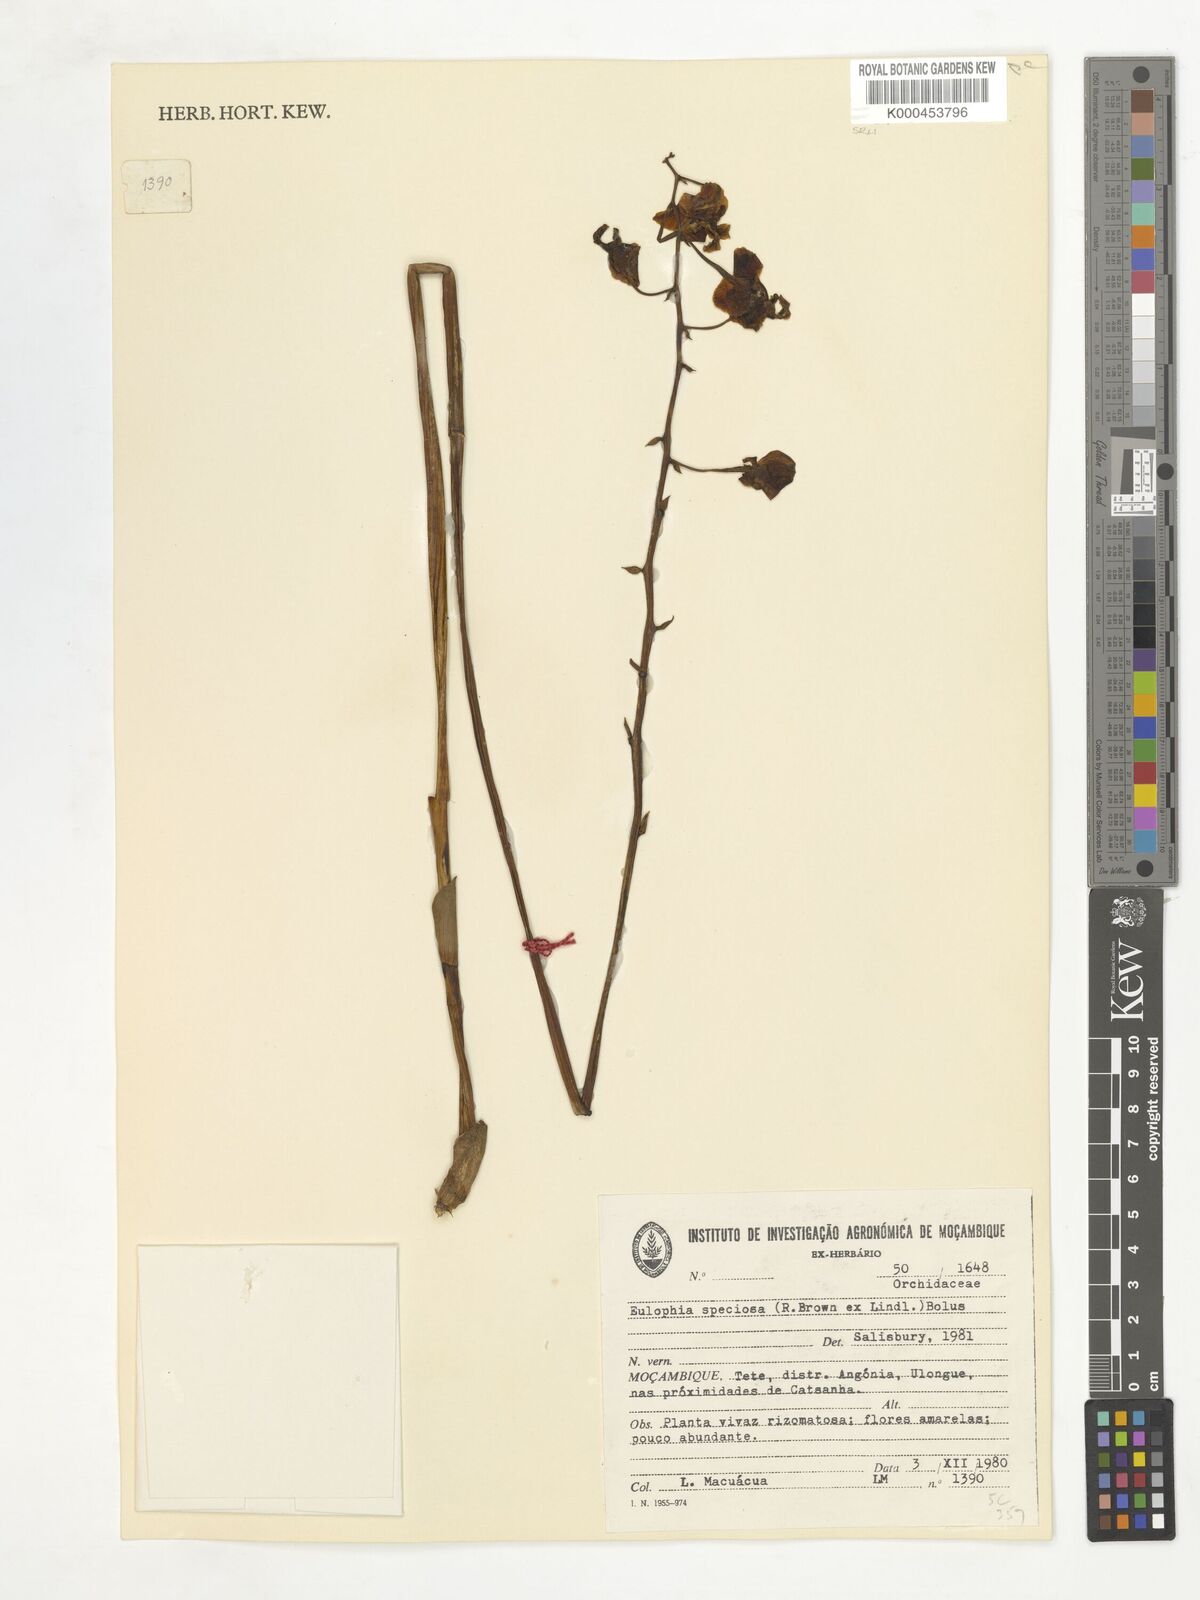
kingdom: Plantae
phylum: Tracheophyta
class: Liliopsida
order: Asparagales
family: Orchidaceae
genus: Eulophia
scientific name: Eulophia speciosa
